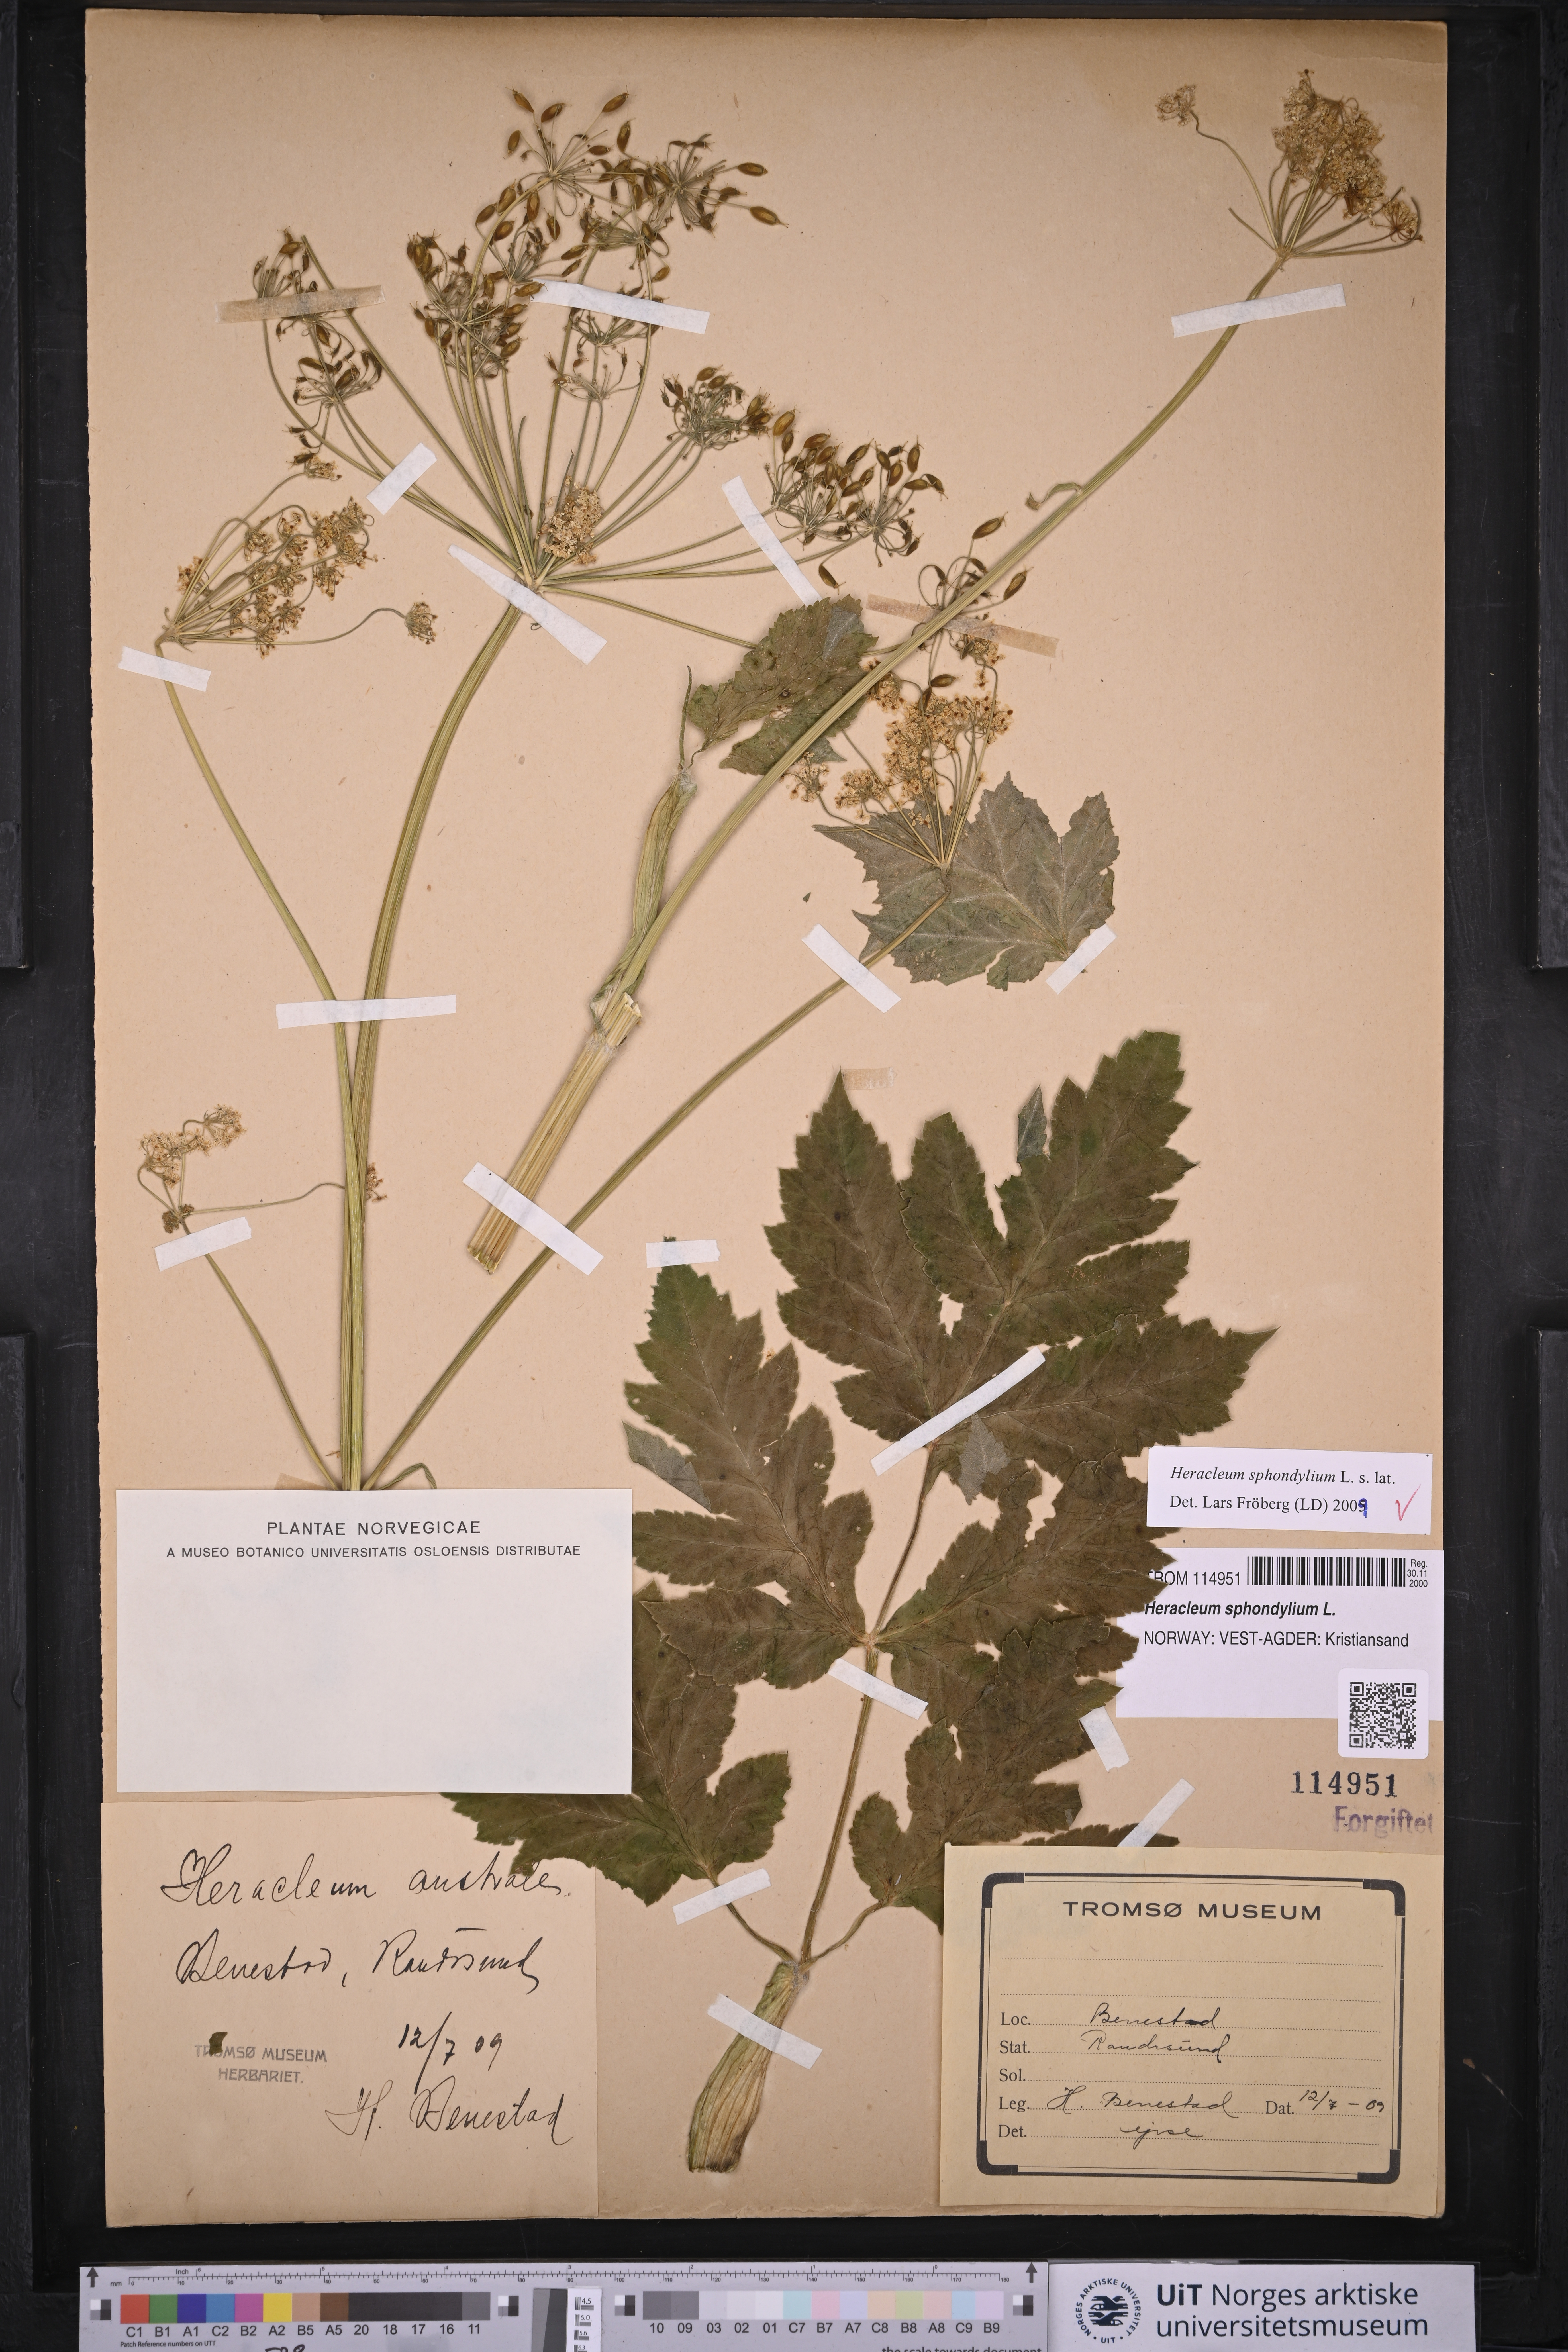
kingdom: Plantae
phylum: Tracheophyta
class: Magnoliopsida
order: Apiales
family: Apiaceae
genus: Heracleum
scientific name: Heracleum sphondylium
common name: Hogweed
